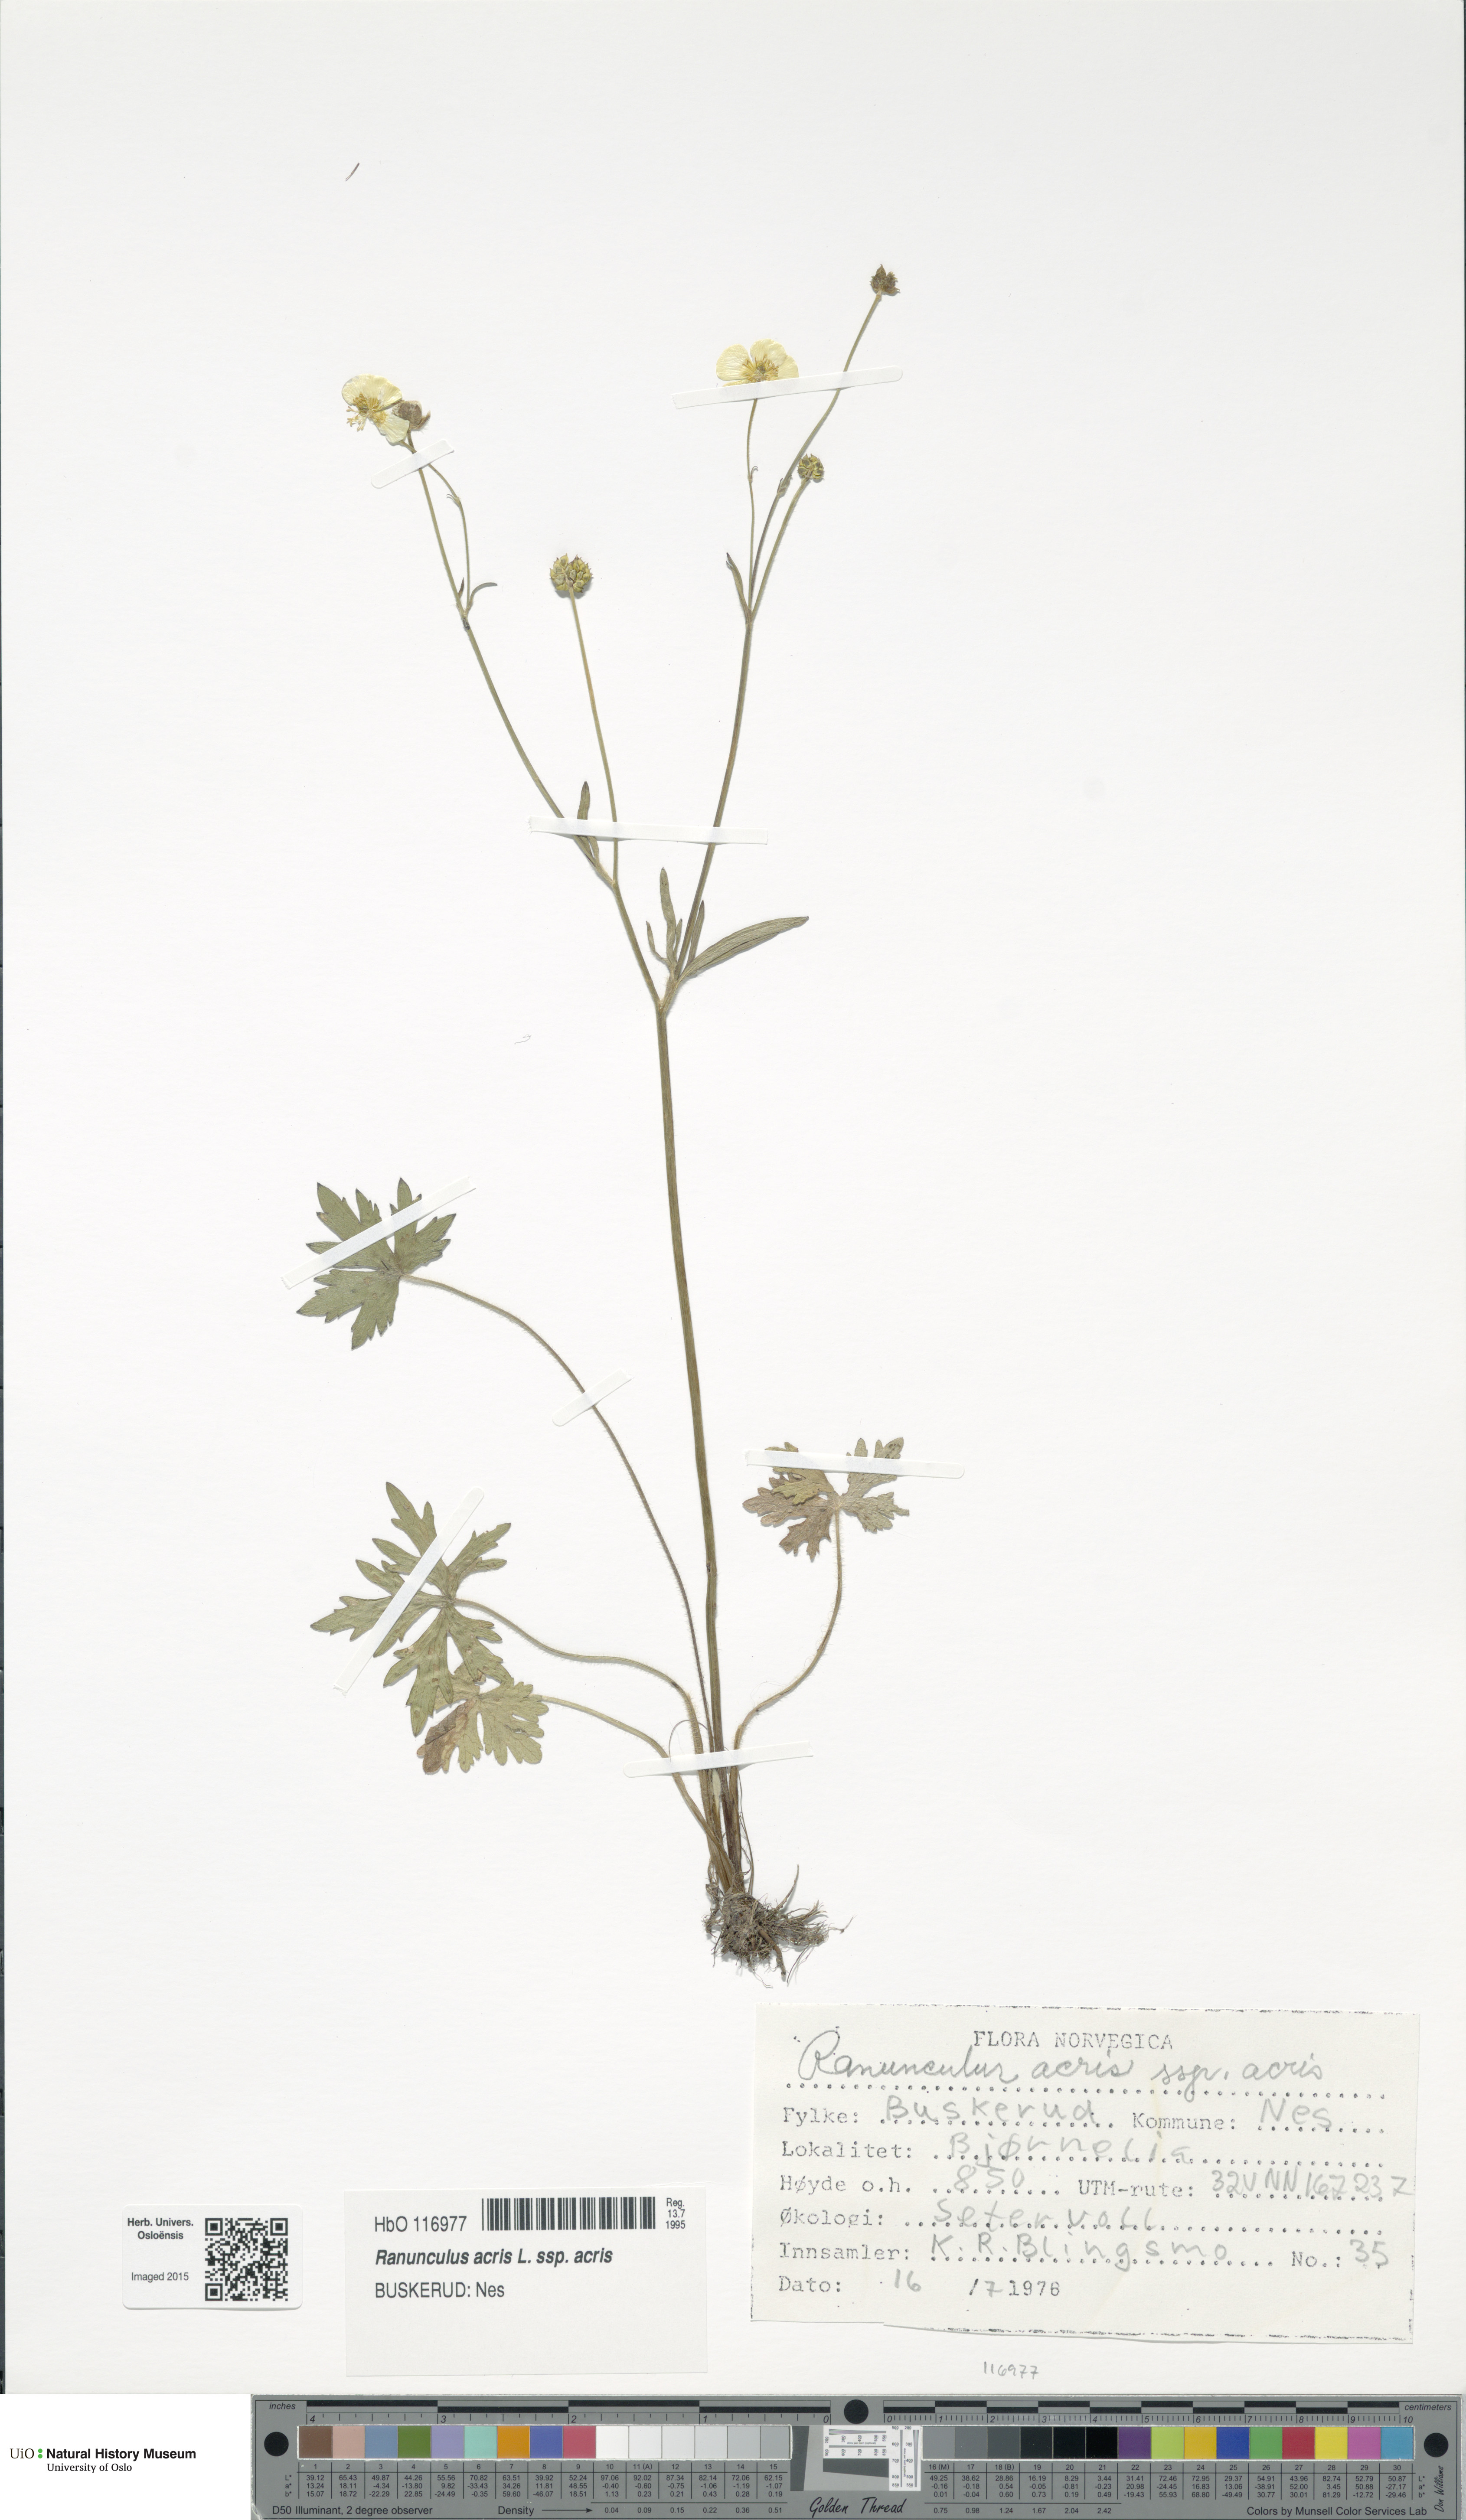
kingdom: Plantae
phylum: Tracheophyta
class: Magnoliopsida
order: Ranunculales
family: Ranunculaceae
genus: Ranunculus
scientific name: Ranunculus acris
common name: Meadow buttercup
